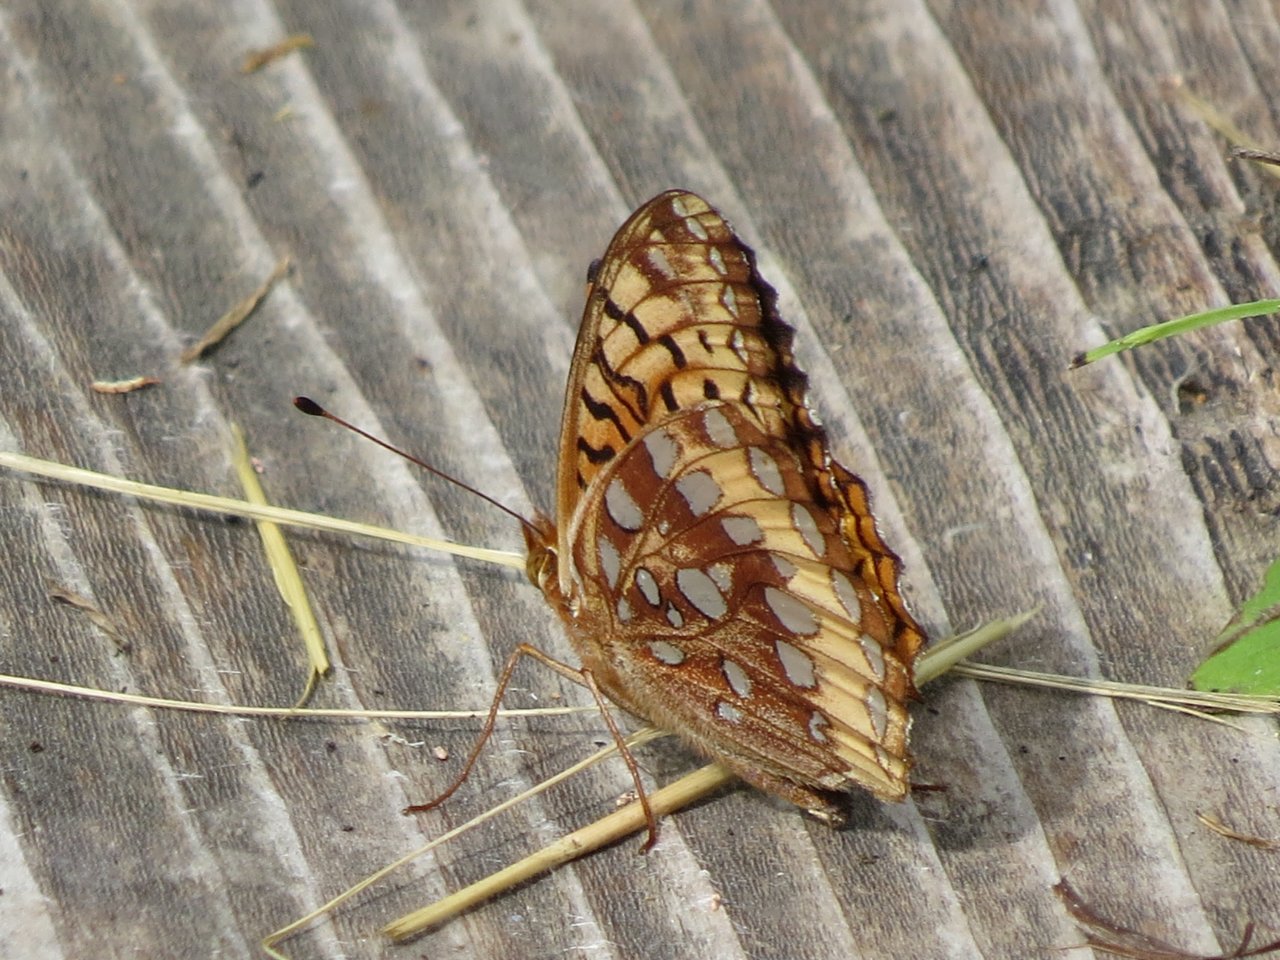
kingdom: Animalia
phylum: Arthropoda
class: Insecta
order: Lepidoptera
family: Nymphalidae
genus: Speyeria
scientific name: Speyeria cybele
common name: Great Spangled Fritillary
